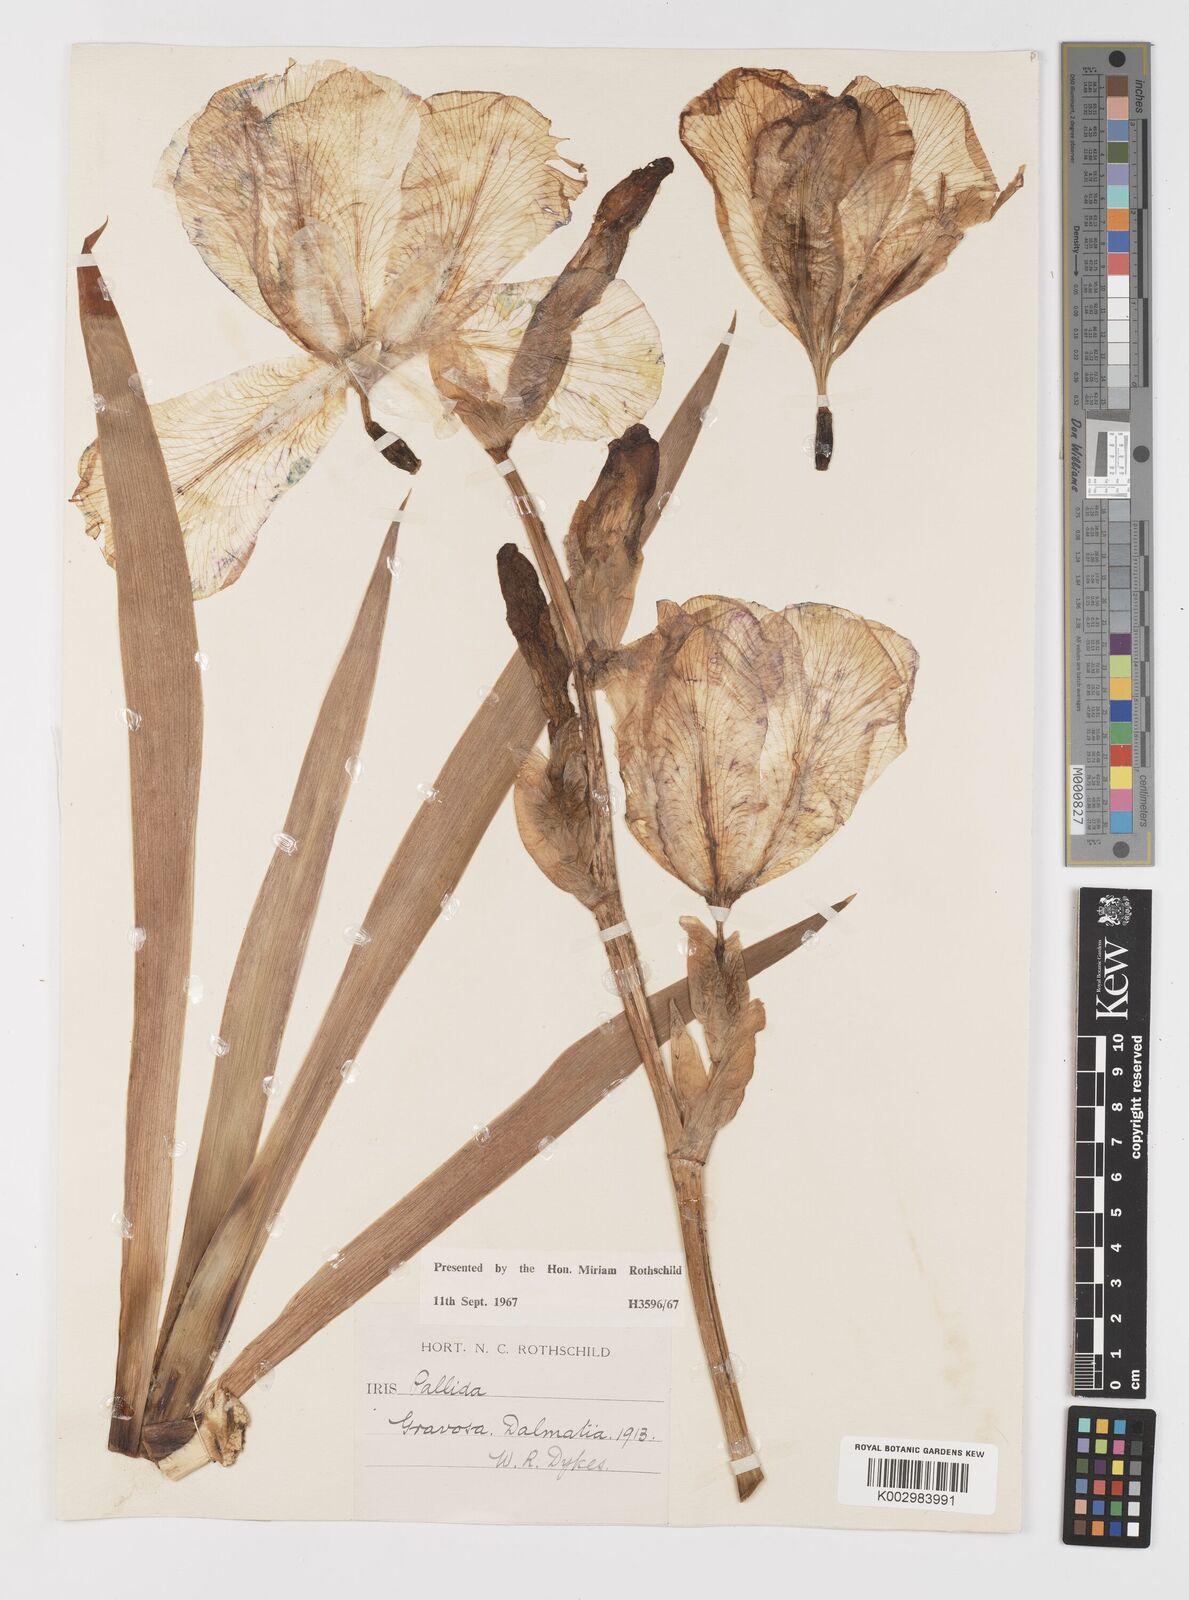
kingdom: Plantae
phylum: Tracheophyta
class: Liliopsida
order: Asparagales
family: Iridaceae
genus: Iris
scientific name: Iris halophila
